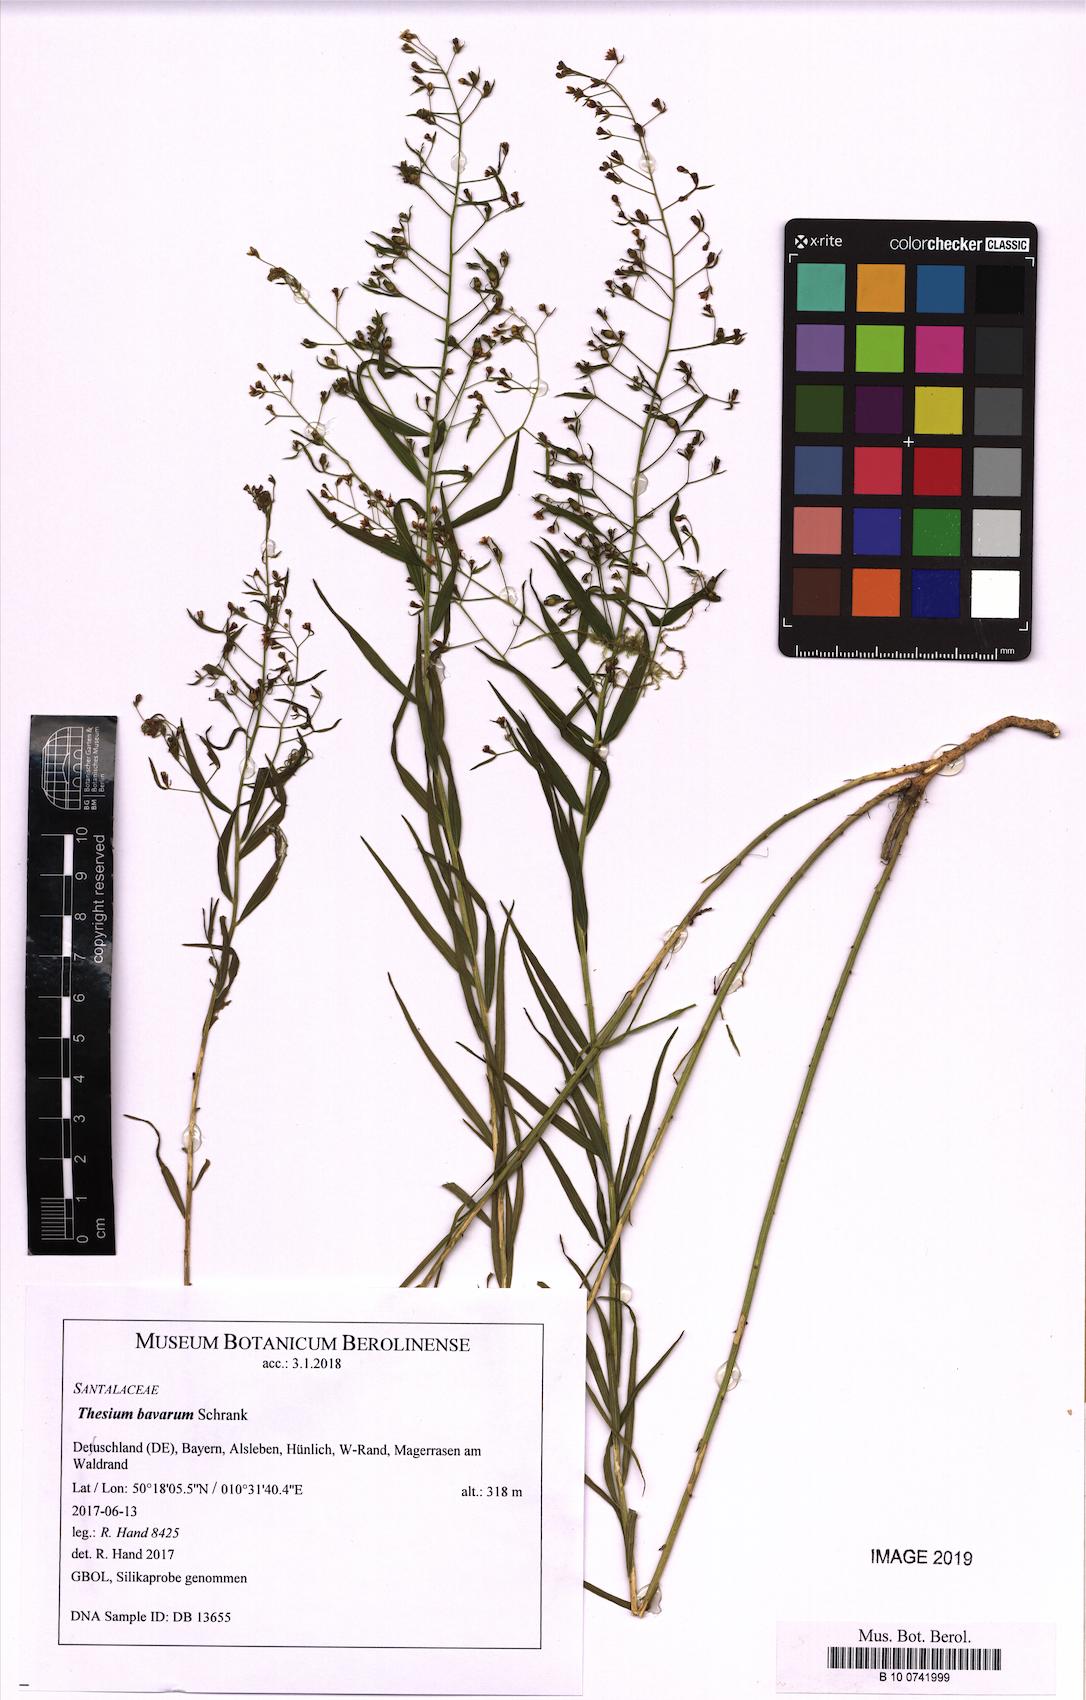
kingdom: Plantae
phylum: Tracheophyta
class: Magnoliopsida
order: Santalales
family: Thesiaceae
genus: Thesium
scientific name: Thesium bavarum
